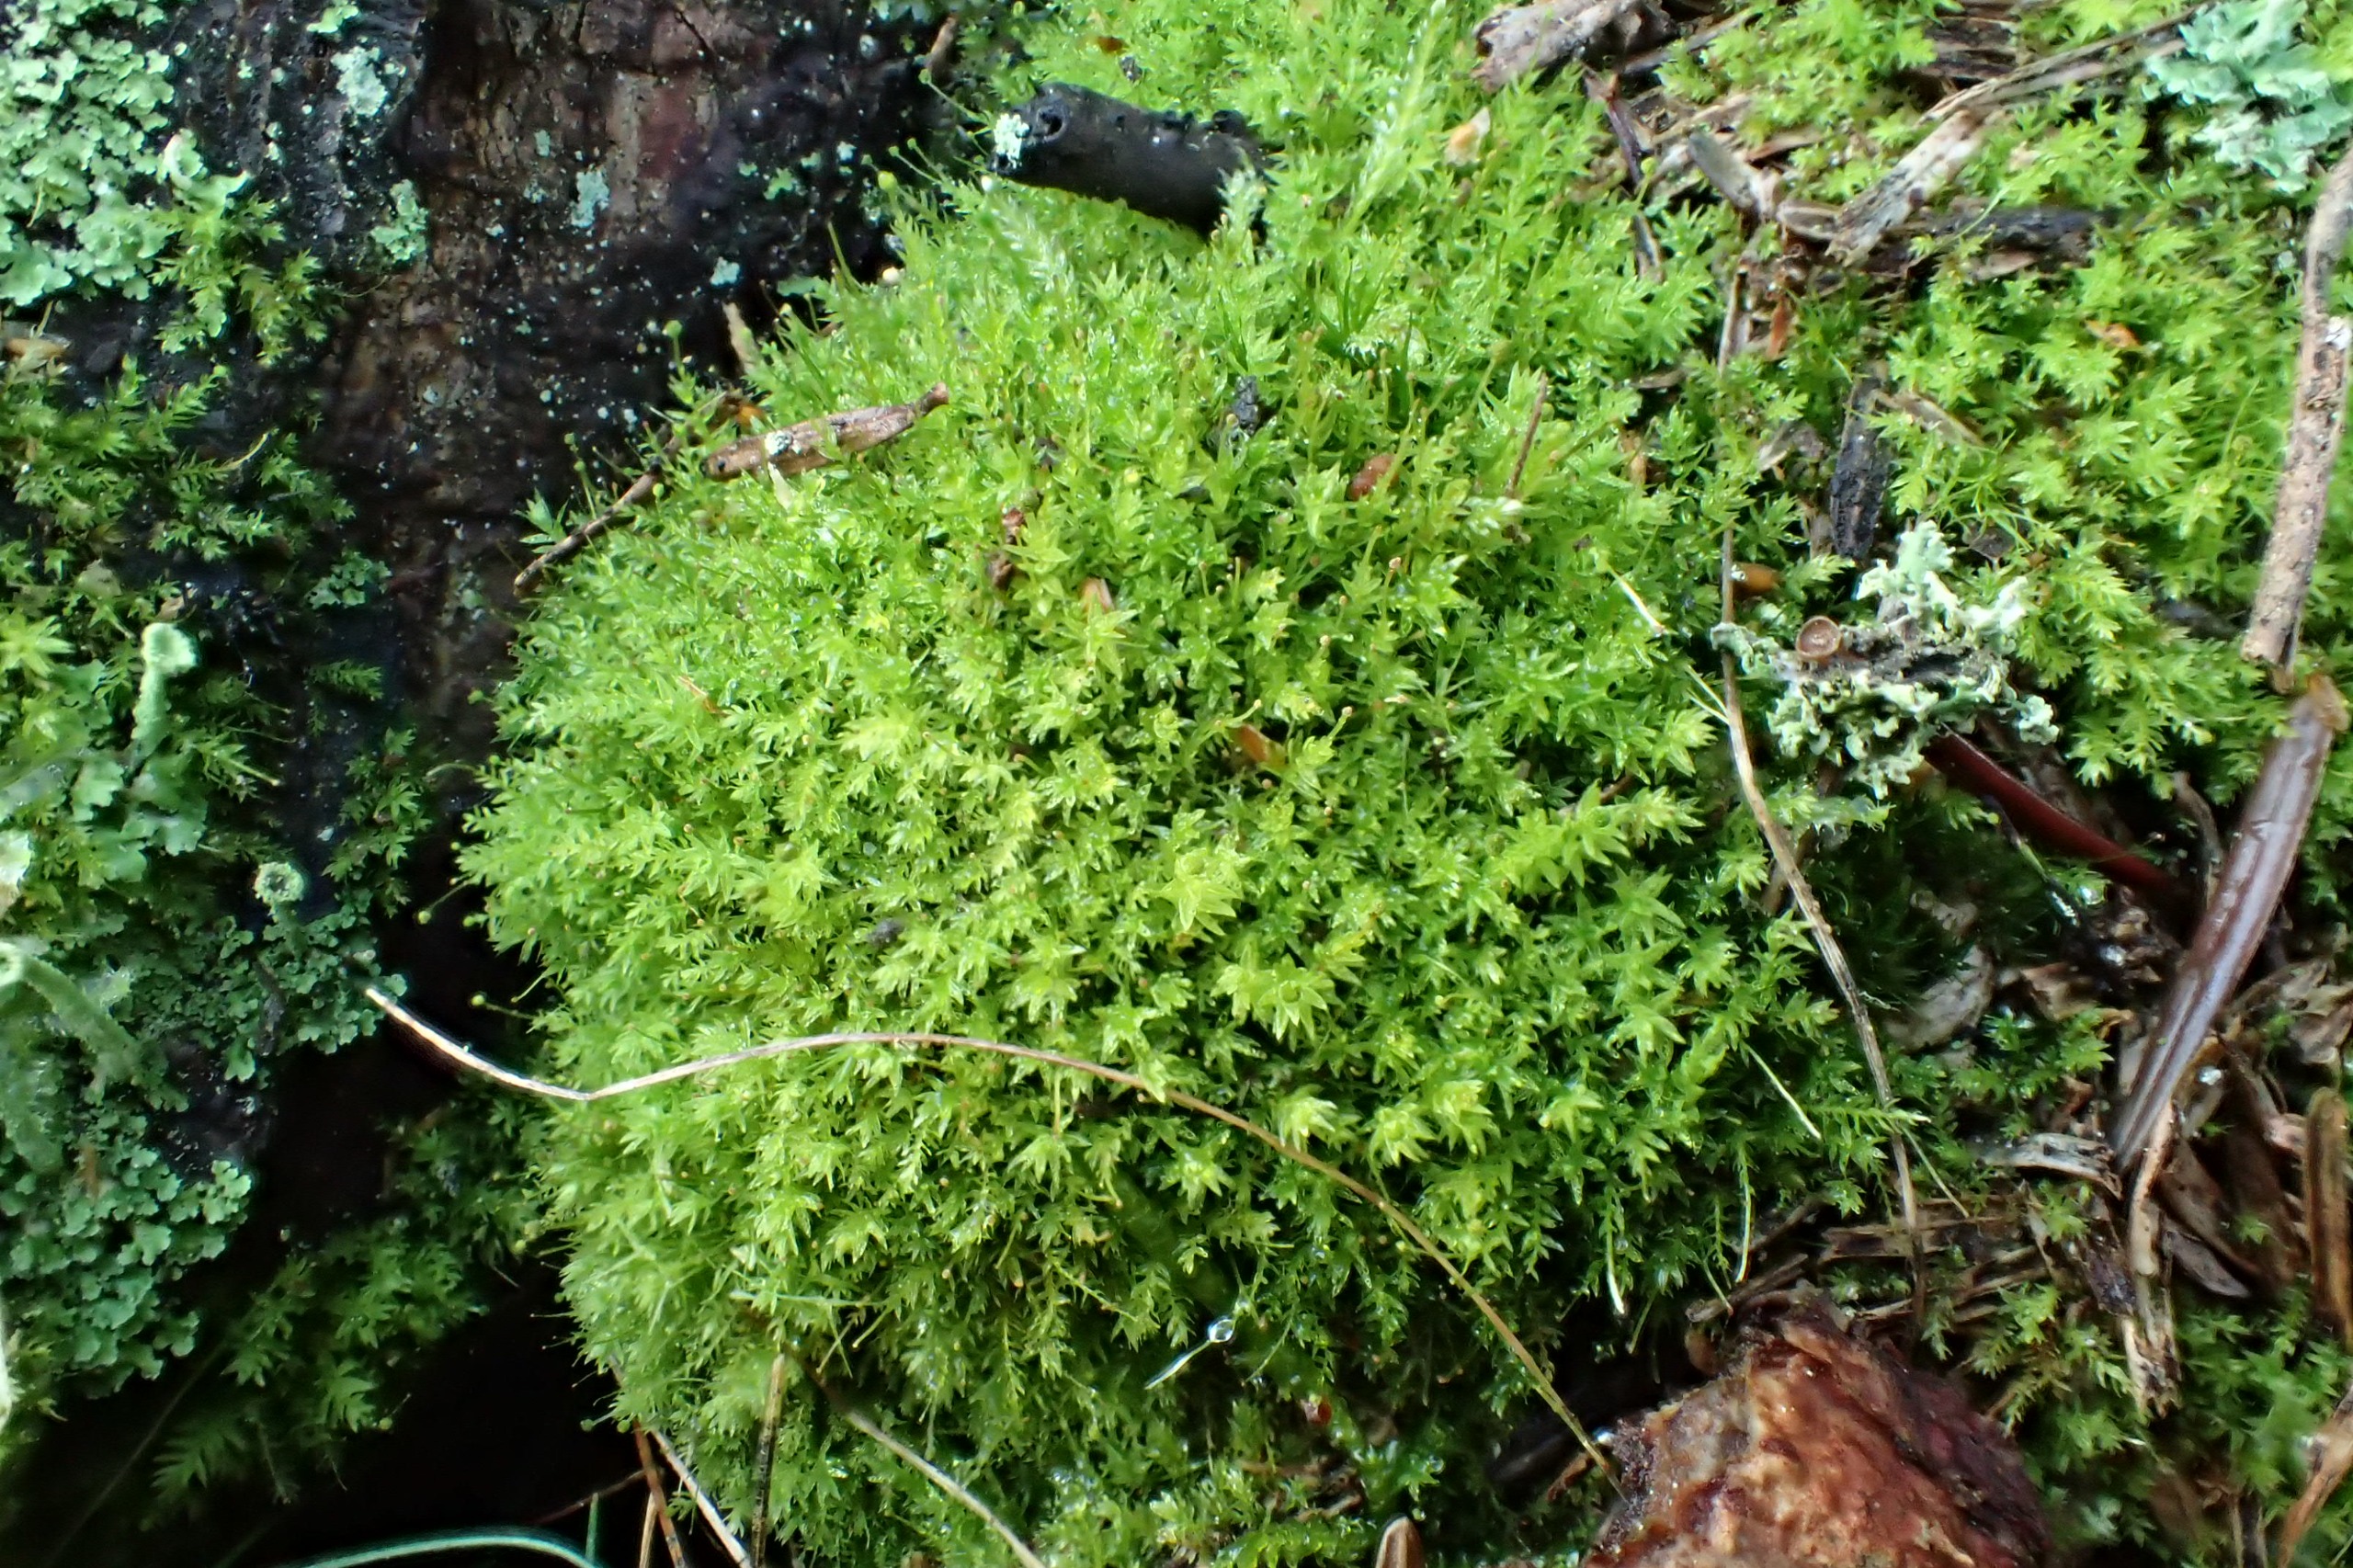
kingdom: Plantae
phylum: Bryophyta
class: Bryopsida
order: Aulacomniales
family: Aulacomniaceae
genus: Aulacomnium
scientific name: Aulacomnium androgynum
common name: Kugle-filtmos
